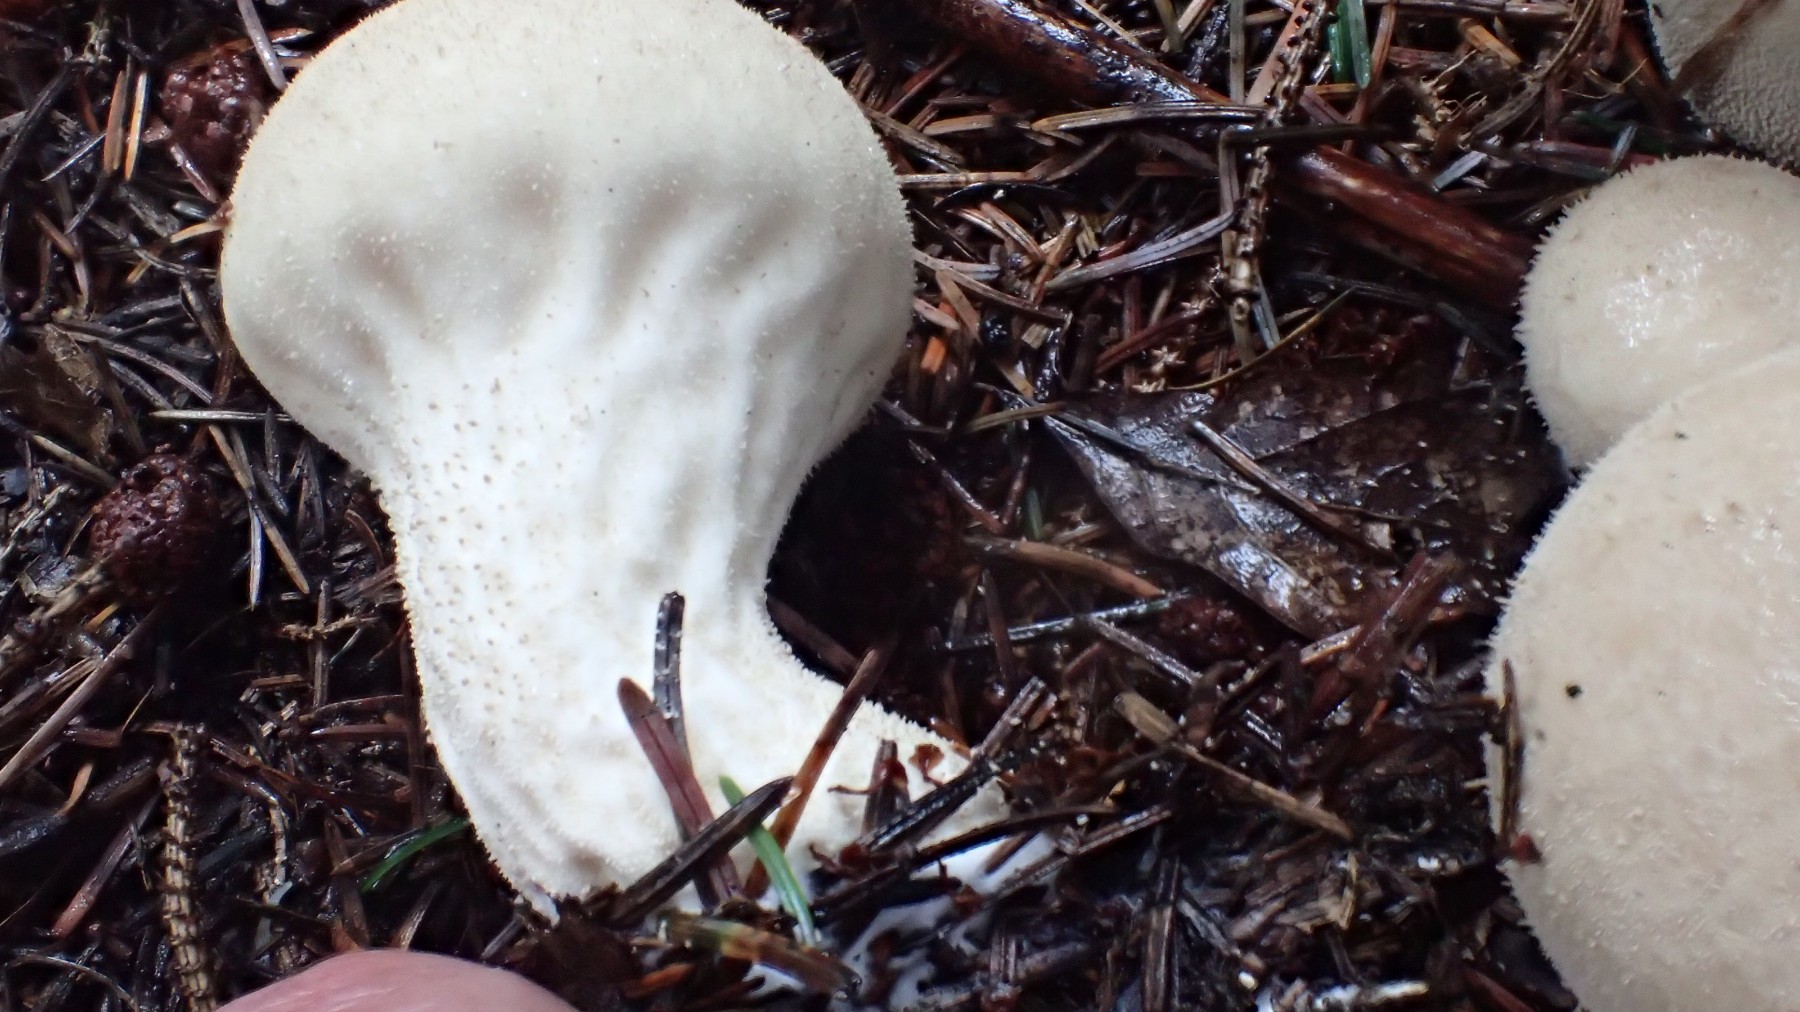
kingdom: Fungi
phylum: Basidiomycota
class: Agaricomycetes
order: Agaricales
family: Lycoperdaceae
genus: Lycoperdon
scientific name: Lycoperdon excipuliforme
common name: højstokket støvbold
